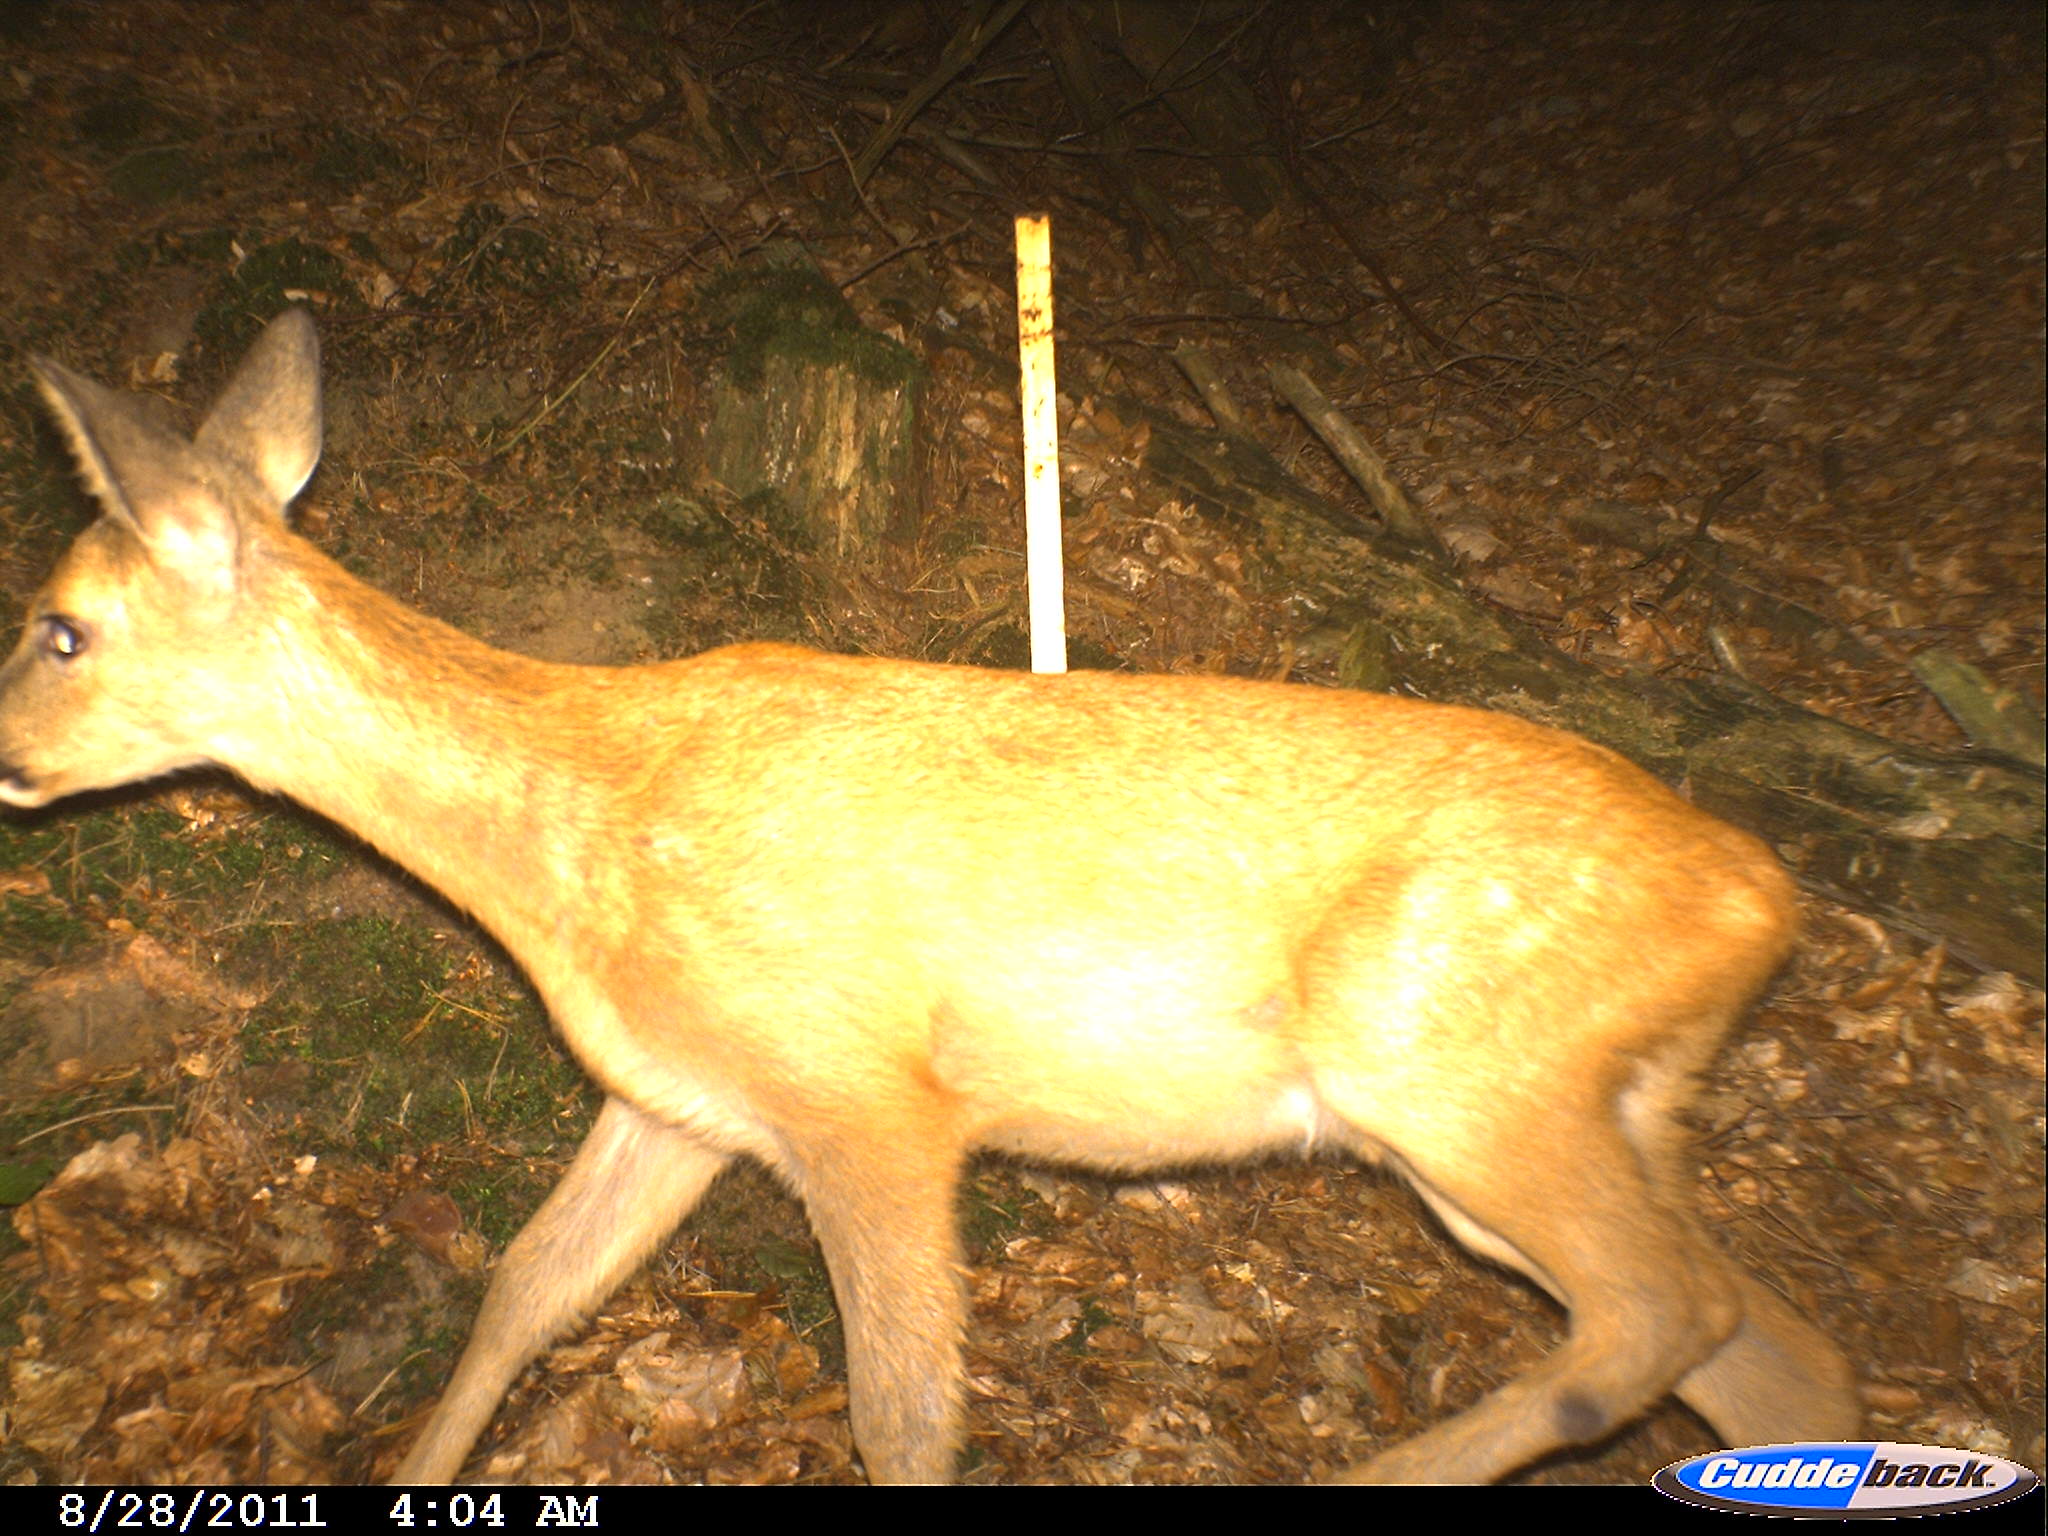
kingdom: Animalia
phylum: Chordata
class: Mammalia
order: Artiodactyla
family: Cervidae
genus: Capreolus
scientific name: Capreolus capreolus
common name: Western roe deer
